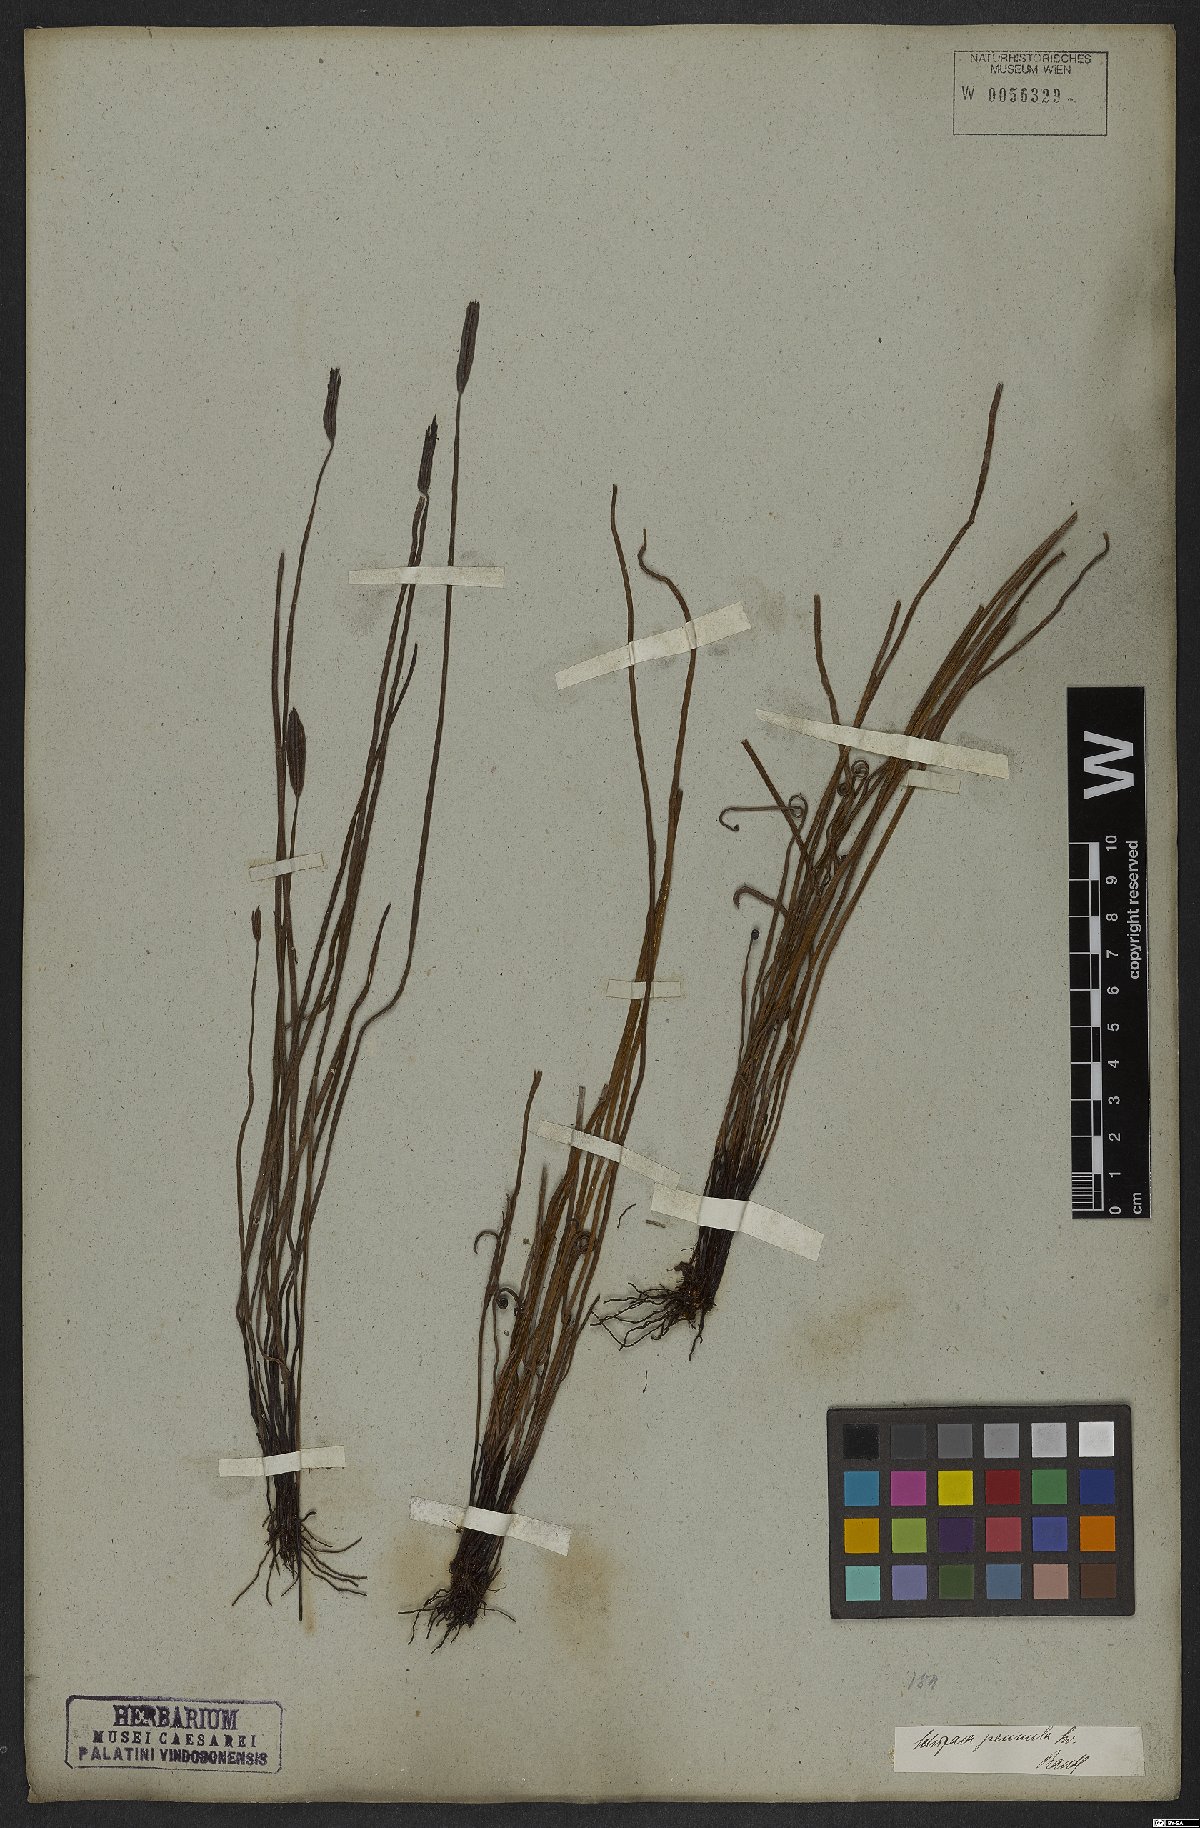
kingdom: Plantae
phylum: Tracheophyta
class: Polypodiopsida
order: Schizaeales
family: Schizaeaceae
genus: Actinostachys
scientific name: Actinostachys pennula
